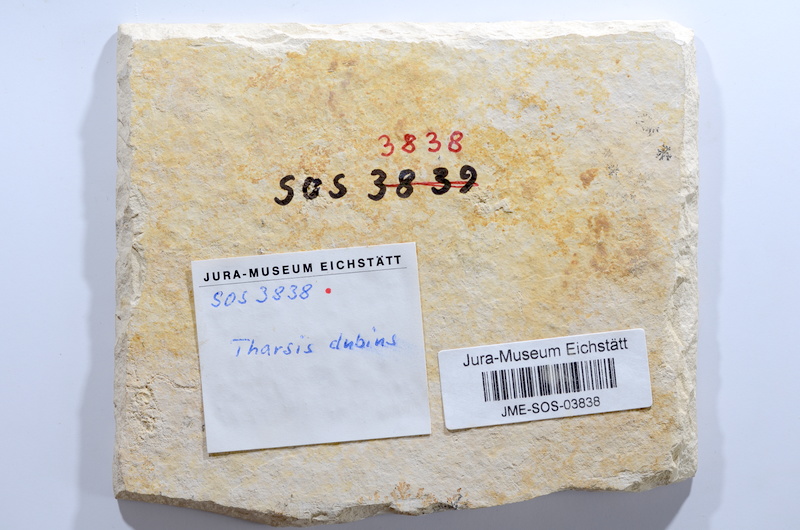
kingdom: Animalia
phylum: Chordata
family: Ascalaboidae
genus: Tharsis
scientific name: Tharsis dubius
